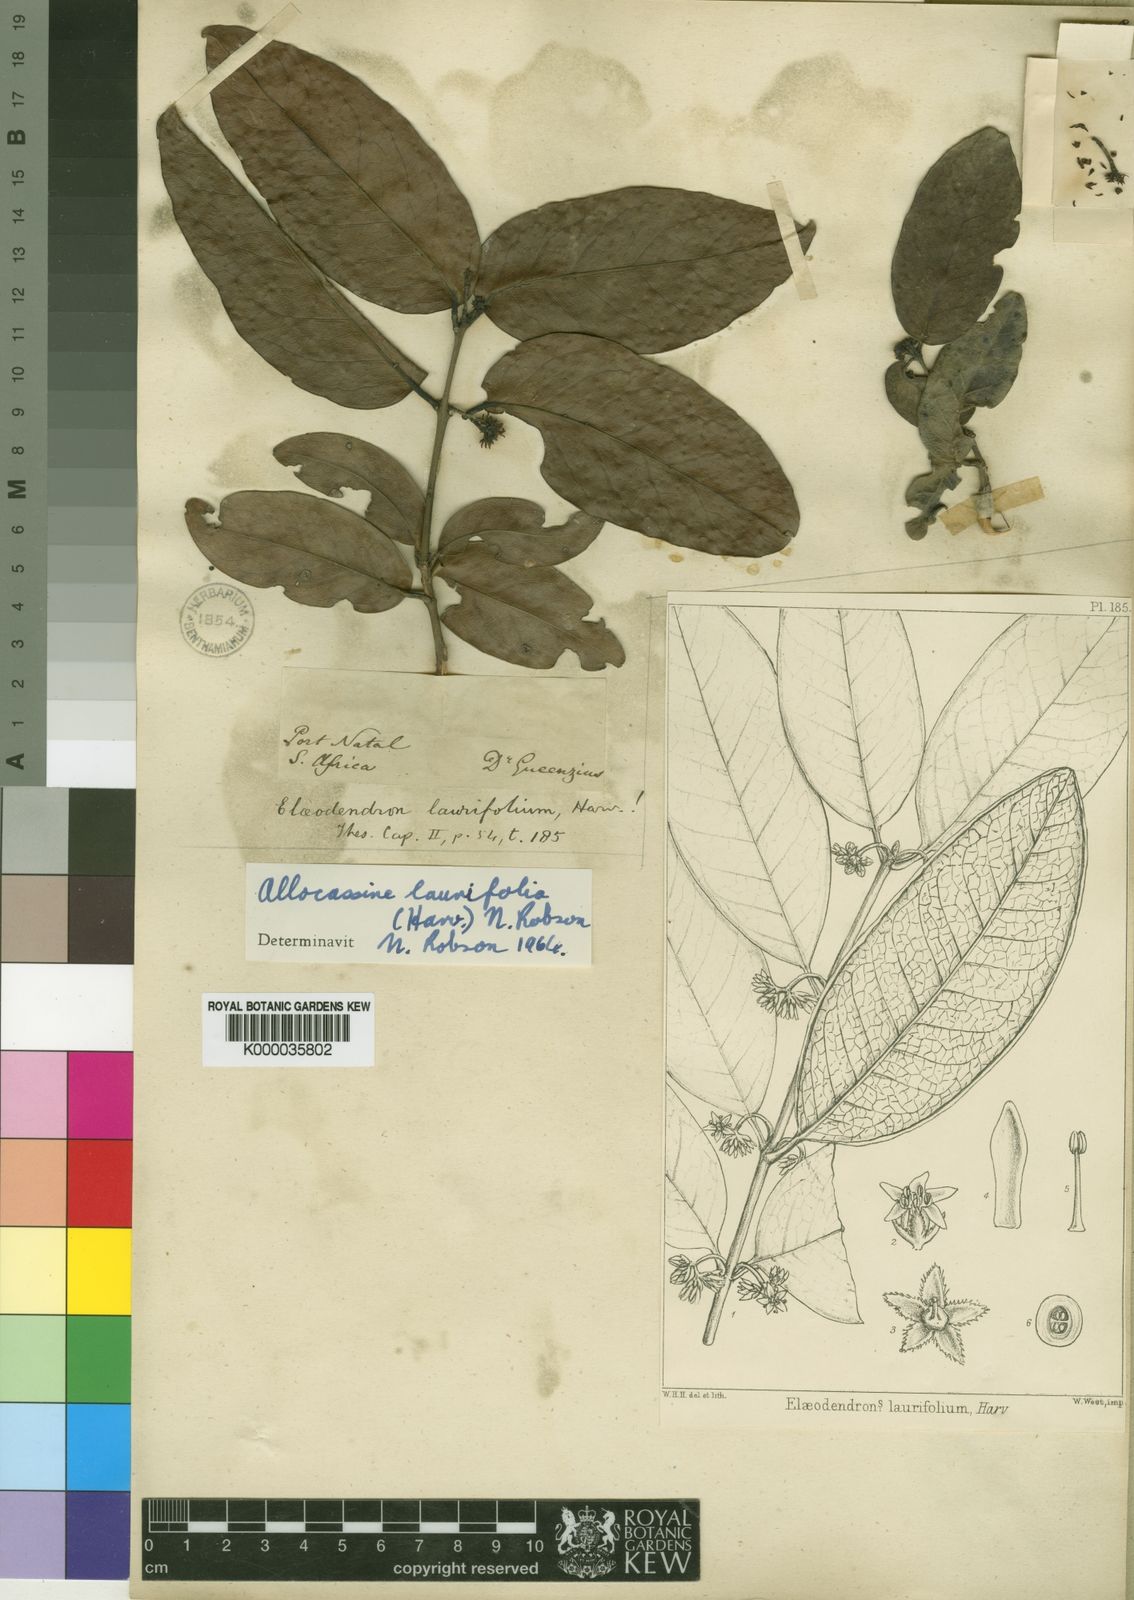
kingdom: Plantae
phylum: Tracheophyta
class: Magnoliopsida
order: Celastrales
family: Celastraceae
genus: Allocassine
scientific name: Allocassine
